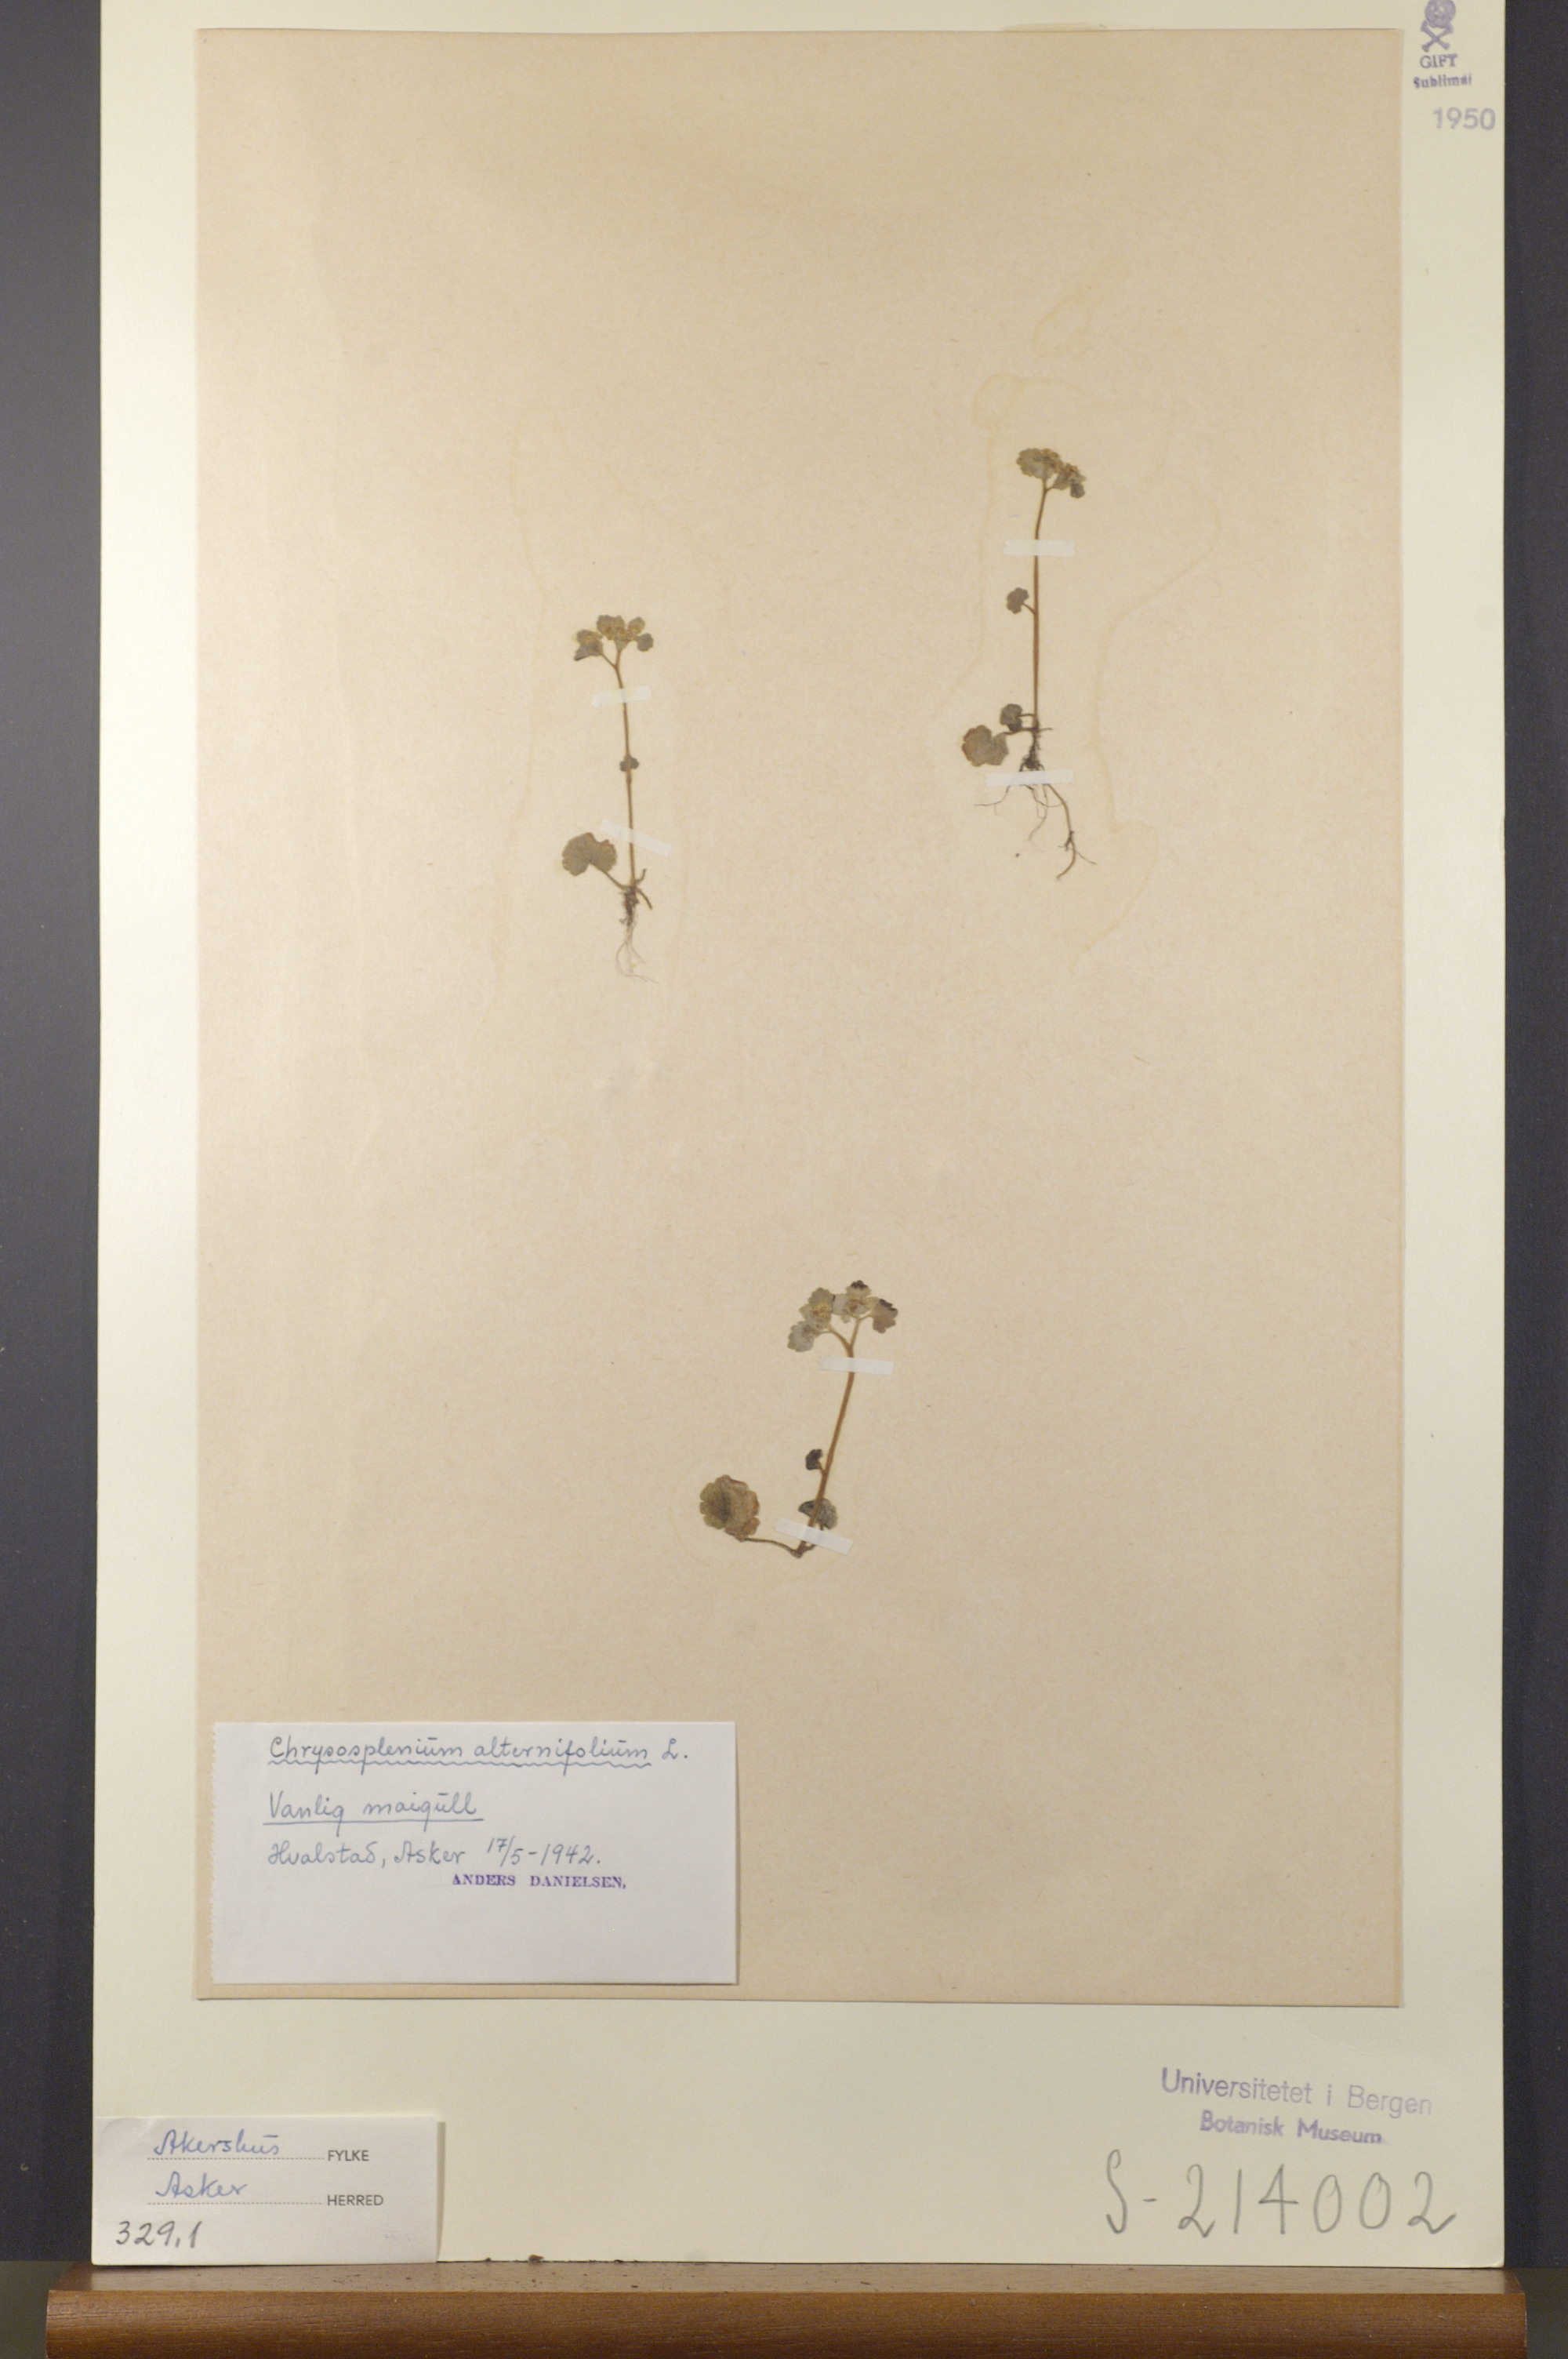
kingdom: Plantae
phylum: Tracheophyta
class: Magnoliopsida
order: Saxifragales
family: Saxifragaceae
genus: Chrysosplenium
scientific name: Chrysosplenium alternifolium
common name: Alternate-leaved golden-saxifrage
